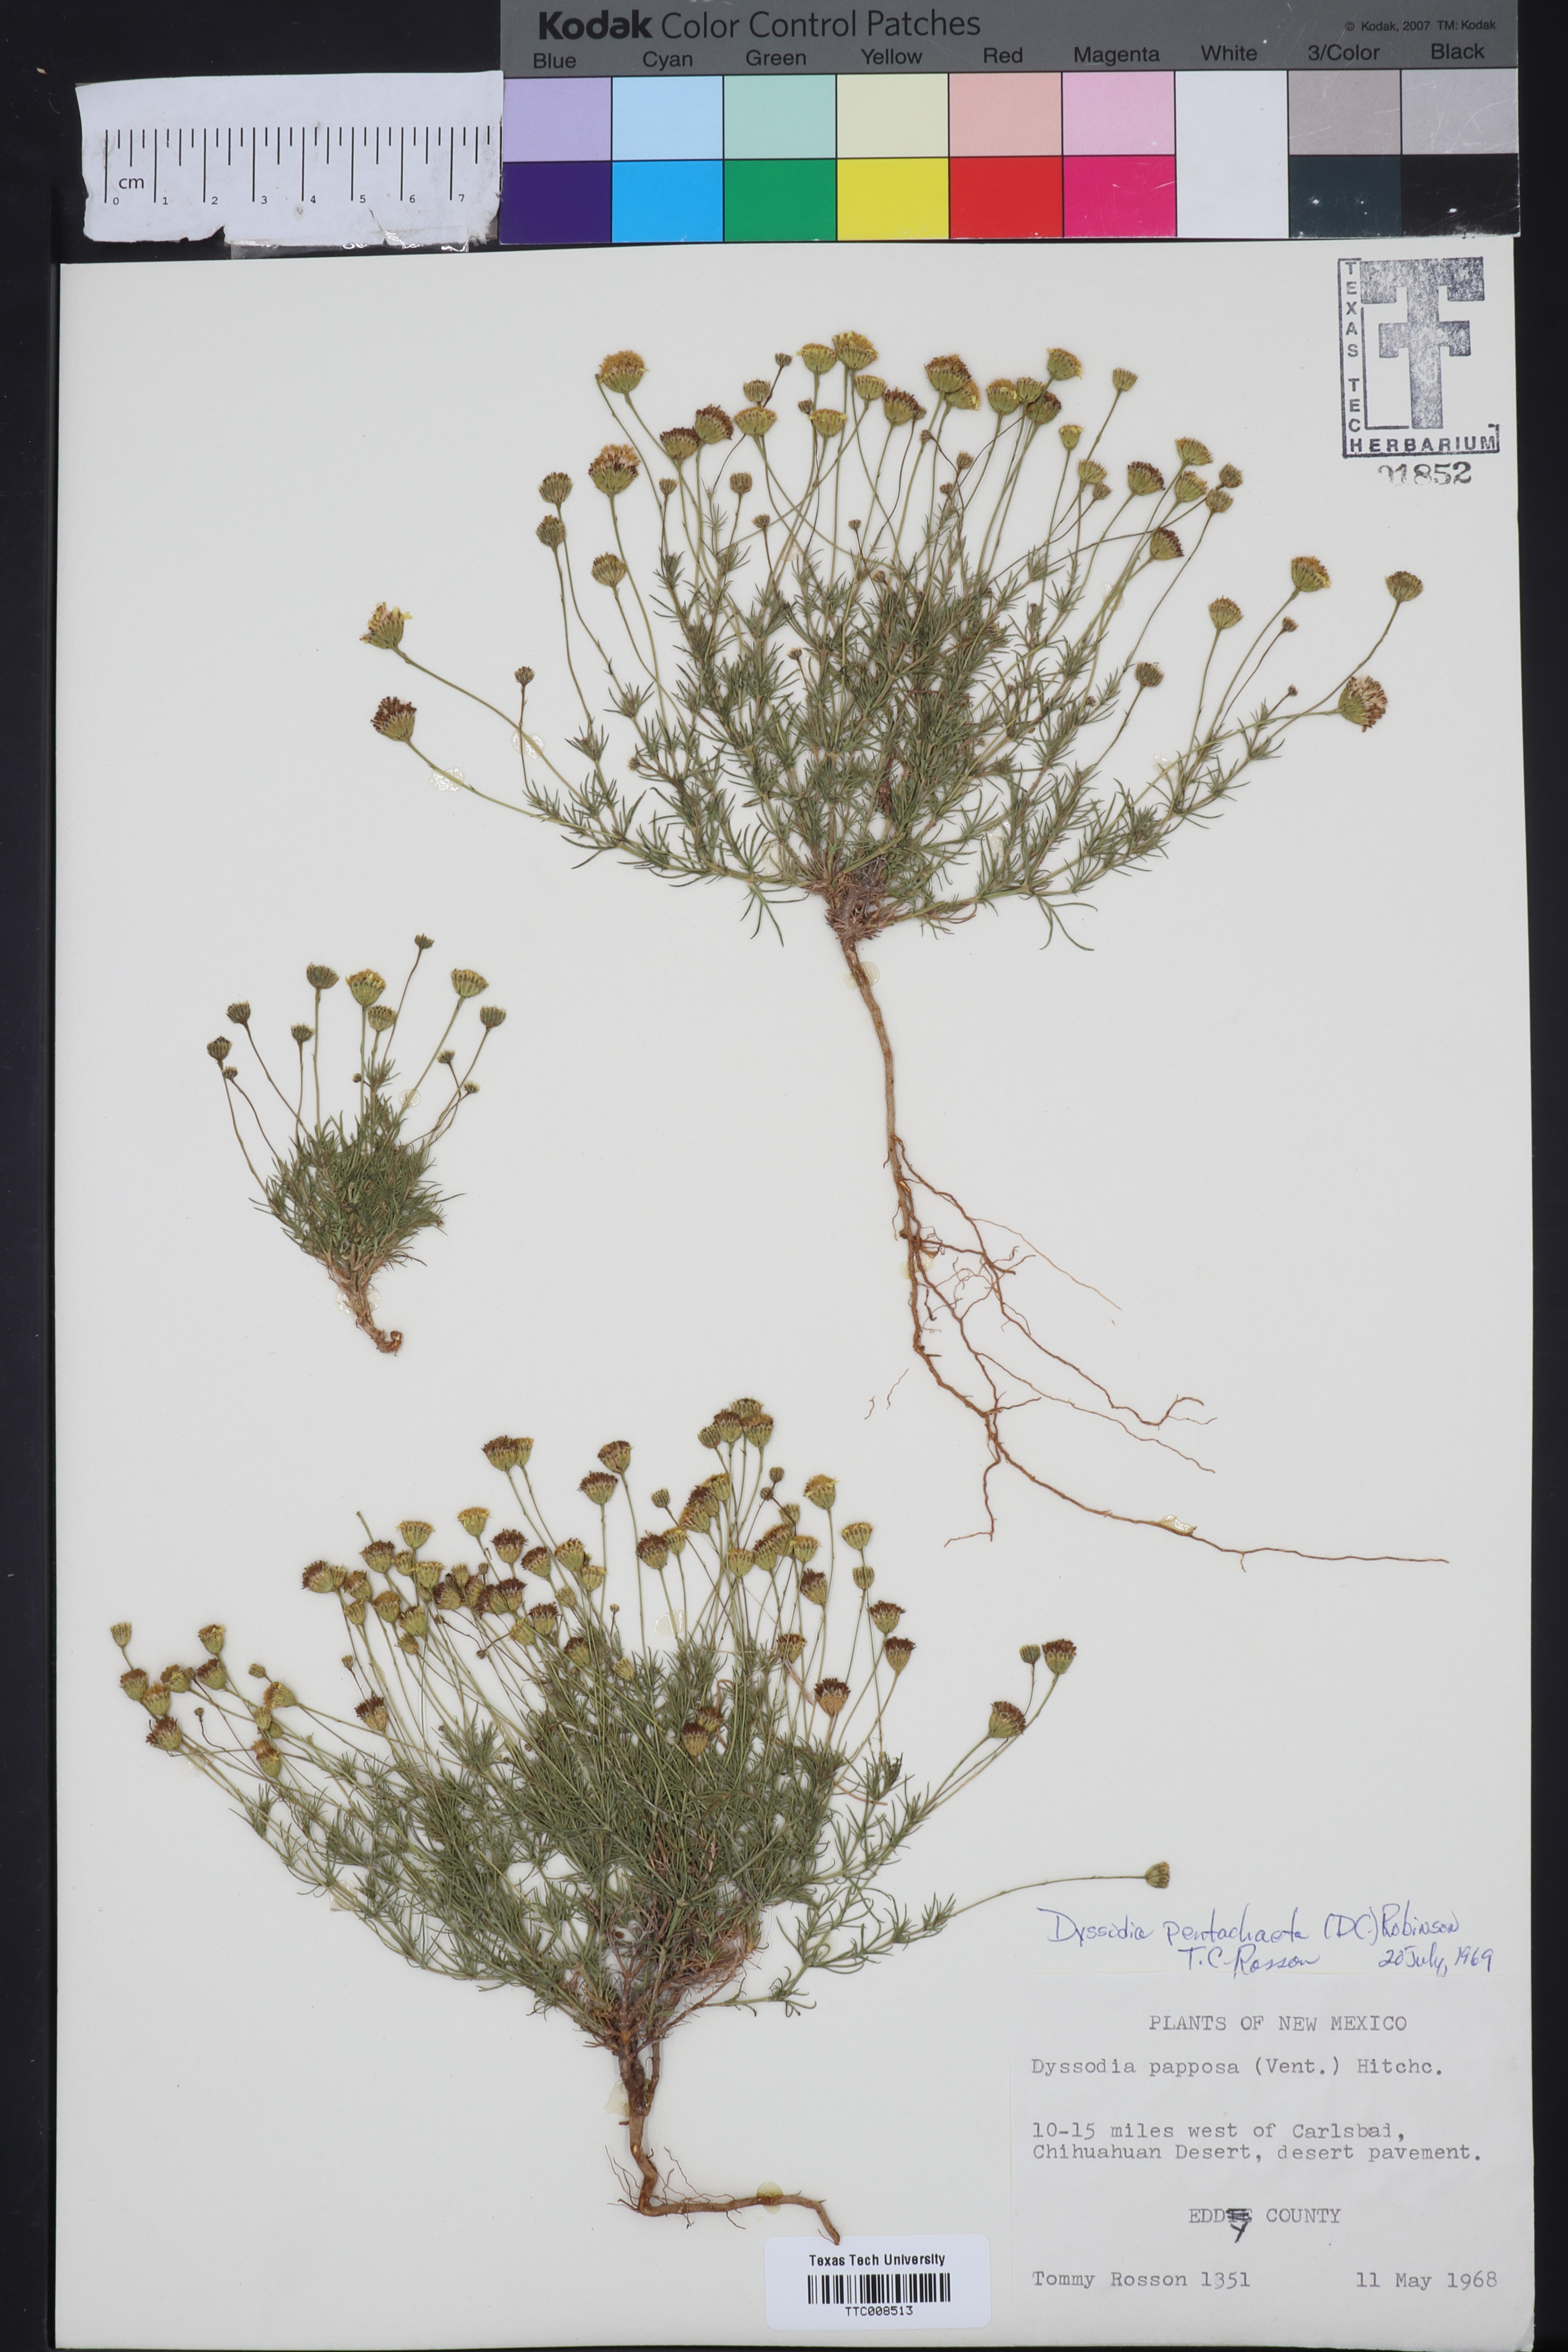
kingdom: Plantae
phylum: Tracheophyta
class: Magnoliopsida
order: Asterales
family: Asteraceae
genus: Thymophylla
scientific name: Thymophylla pentachaeta
